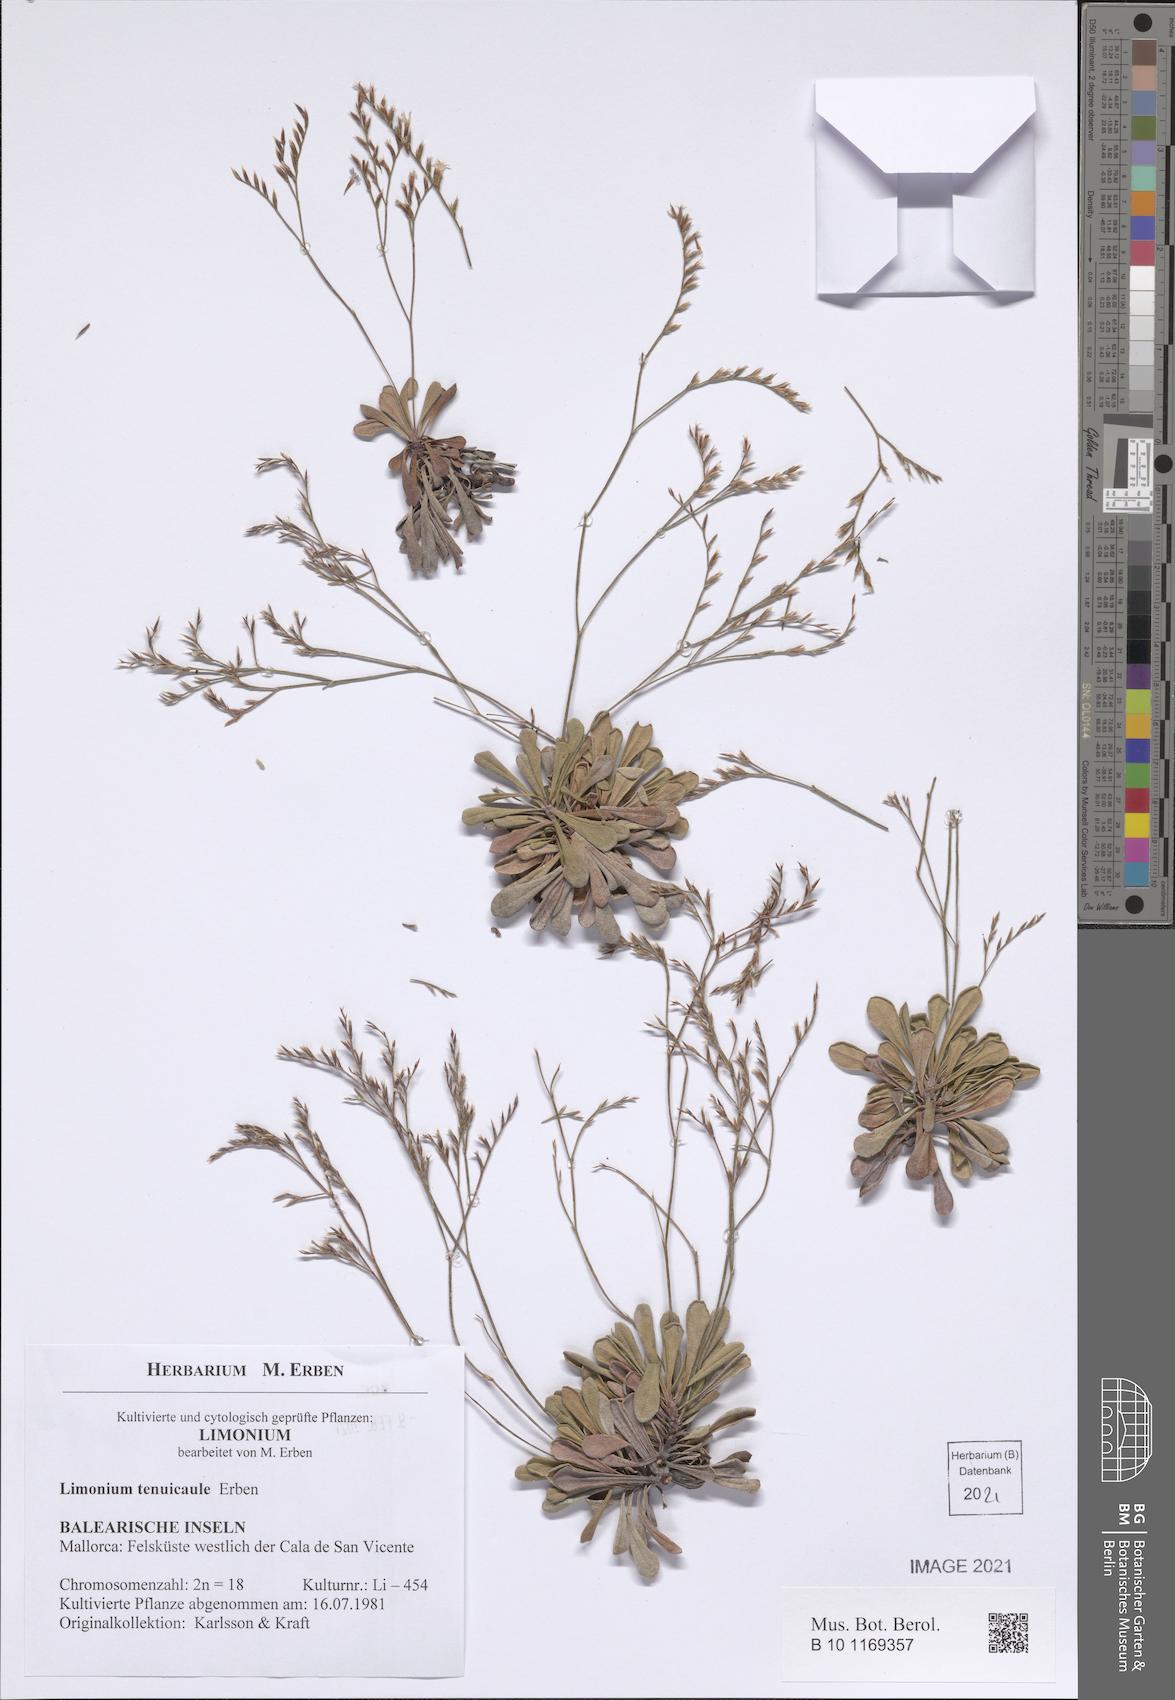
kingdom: Plantae
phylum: Tracheophyta
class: Magnoliopsida
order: Caryophyllales
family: Plumbaginaceae
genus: Limonium
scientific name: Limonium tenuicaule
